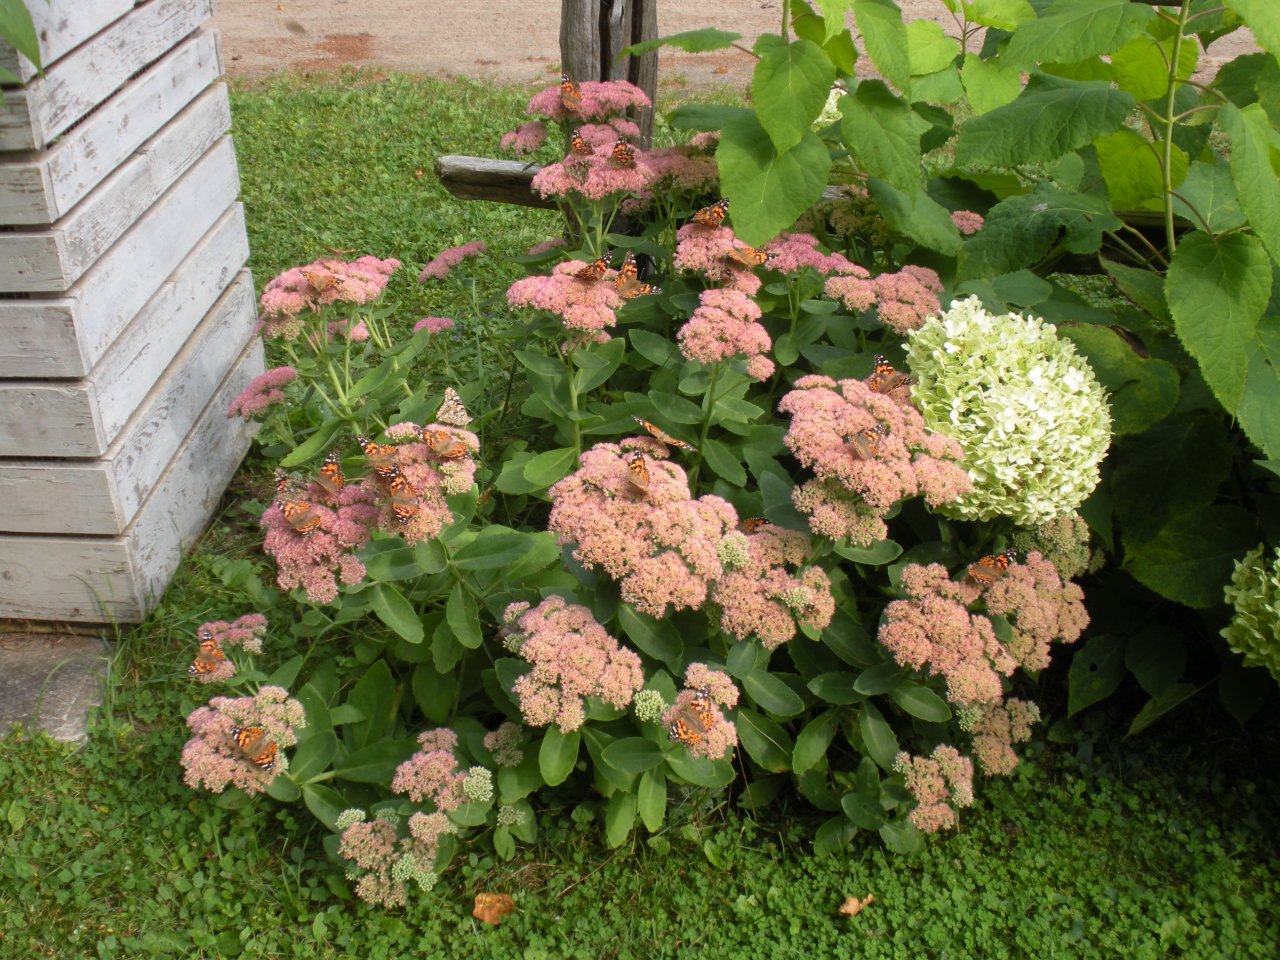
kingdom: Animalia
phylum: Arthropoda
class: Insecta
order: Lepidoptera
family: Nymphalidae
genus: Vanessa
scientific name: Vanessa cardui
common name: Painted Lady
